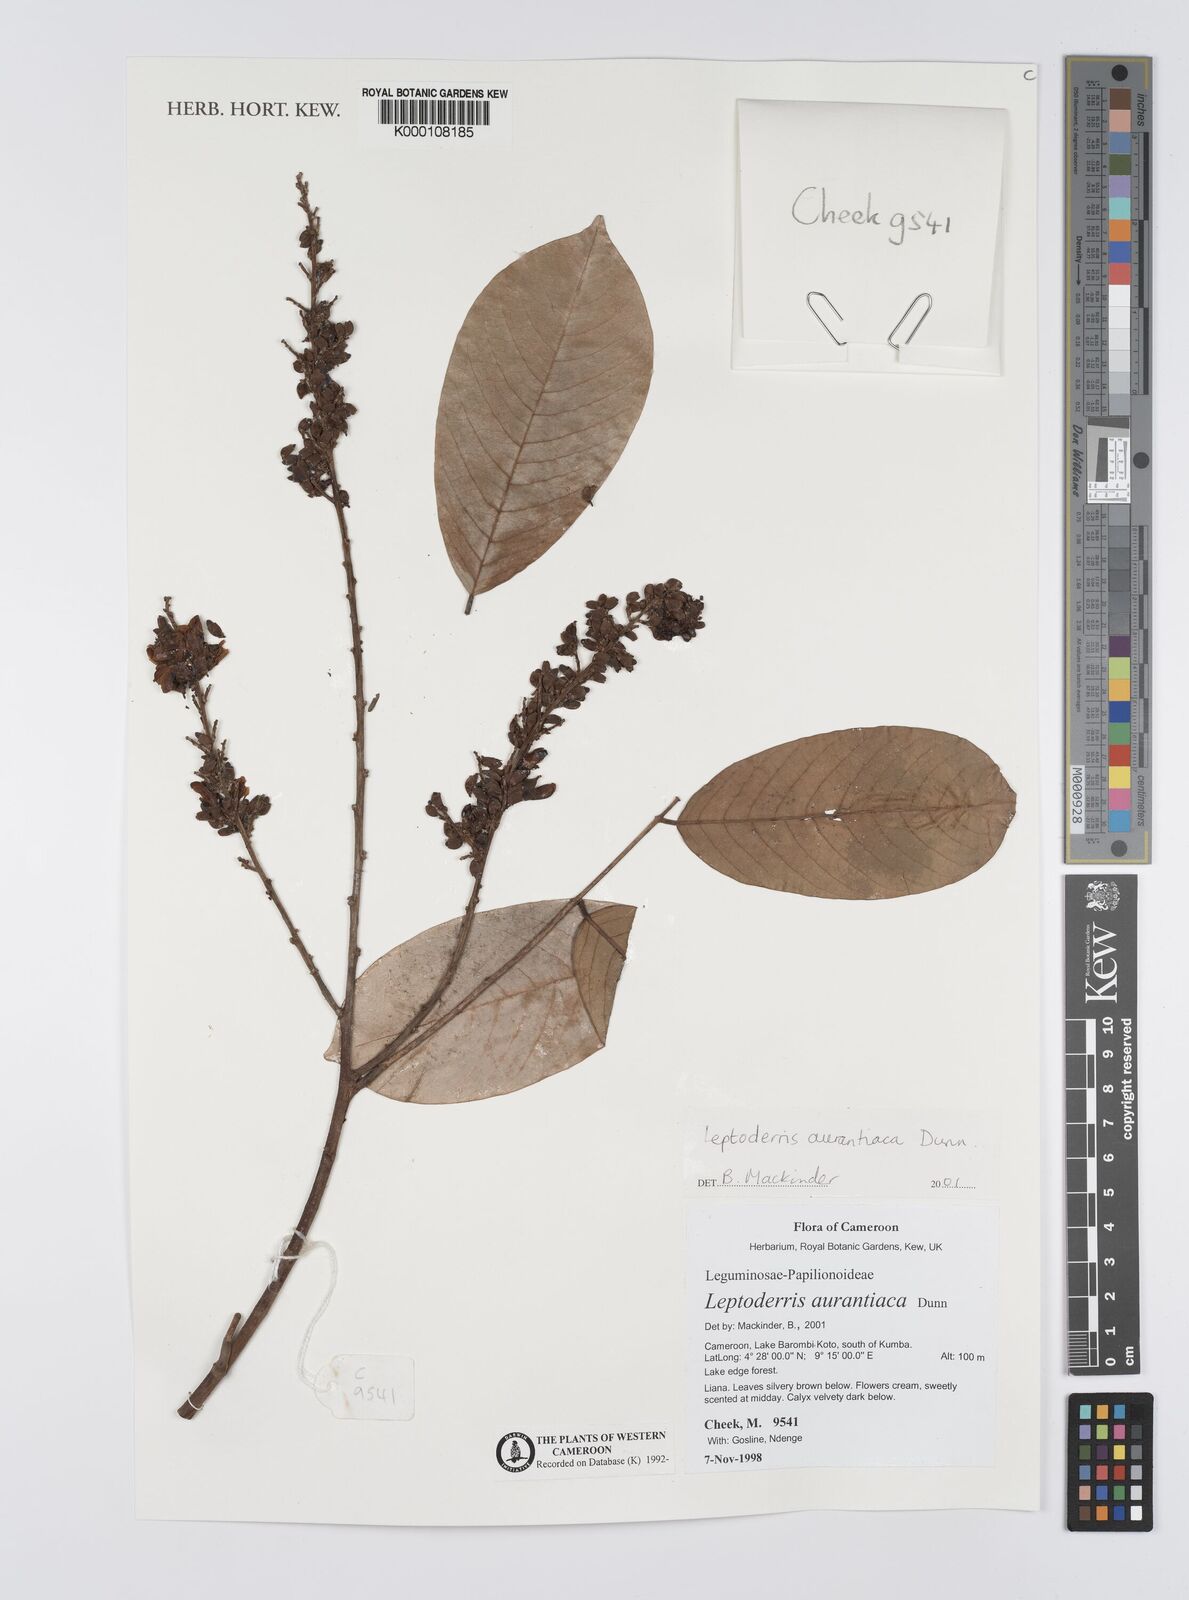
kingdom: Plantae
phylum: Tracheophyta
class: Magnoliopsida
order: Fabales
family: Fabaceae
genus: Leptoderris
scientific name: Leptoderris aurantiaca
